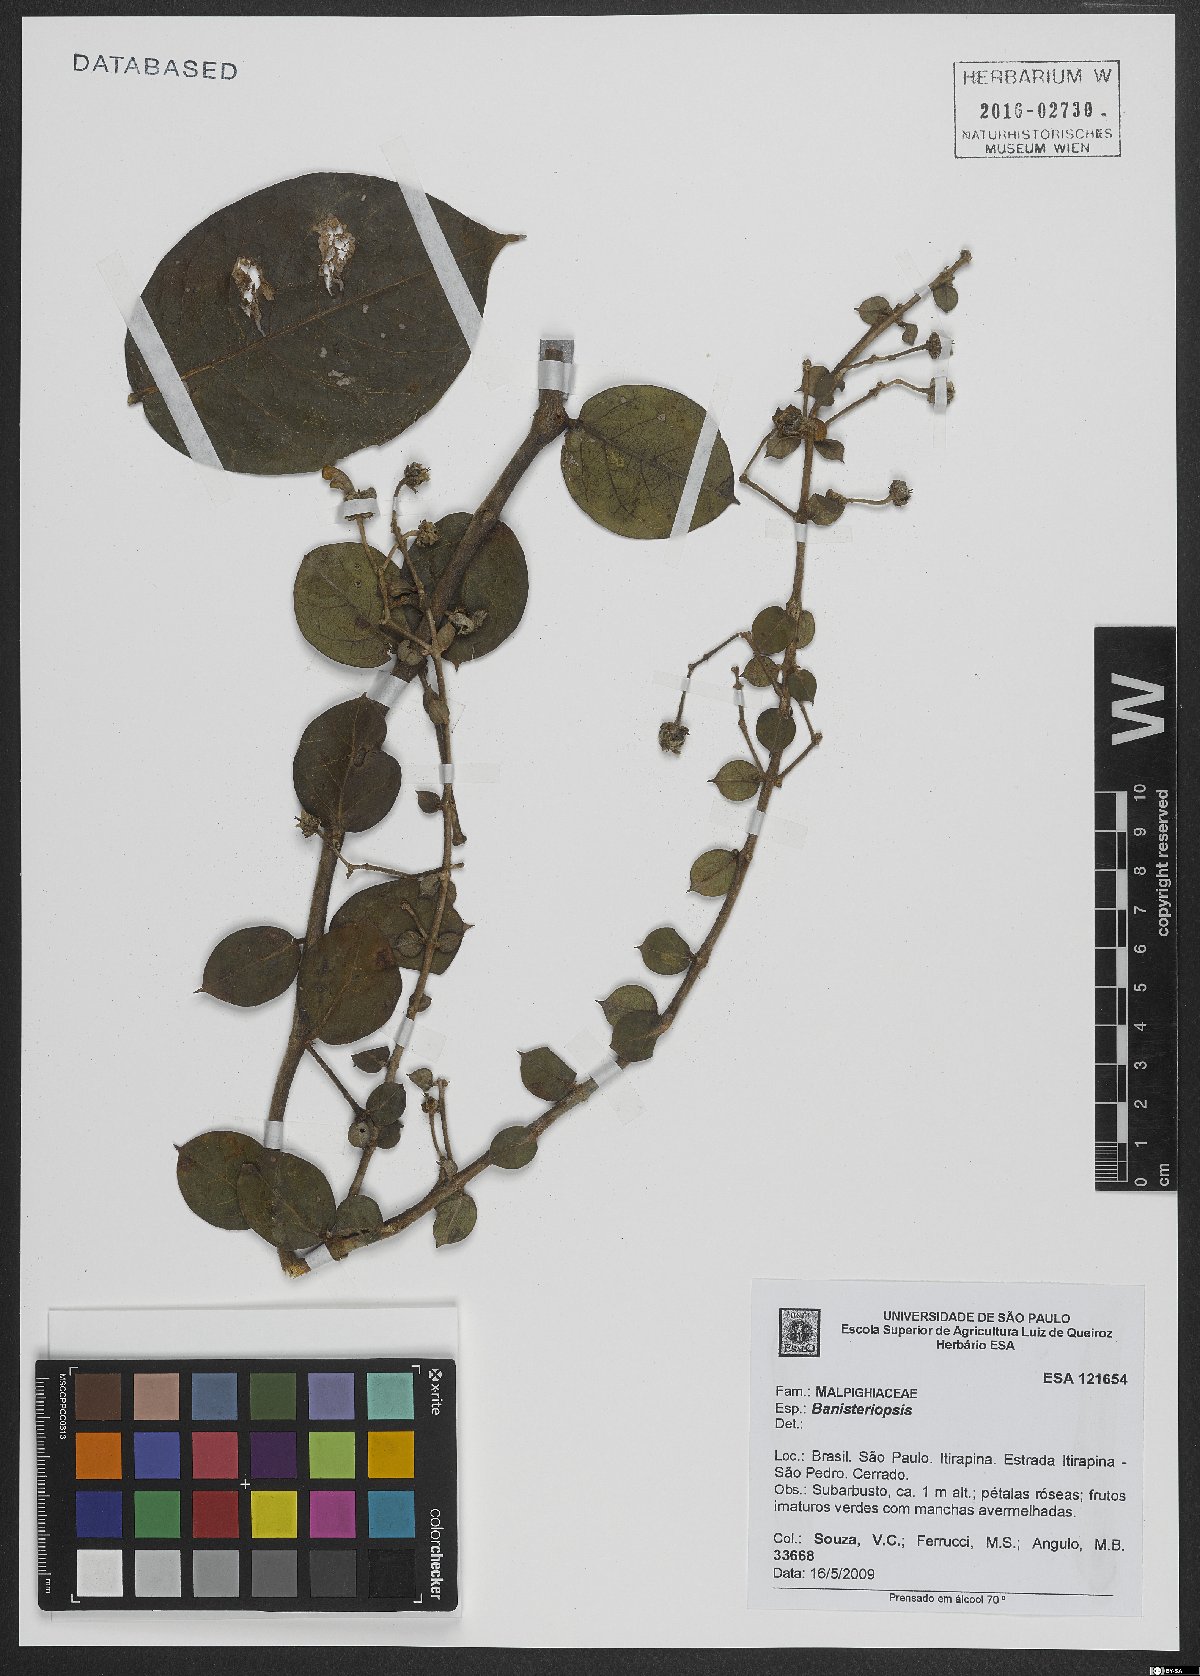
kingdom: Plantae
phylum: Tracheophyta
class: Magnoliopsida
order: Malpighiales
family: Malpighiaceae
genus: Banisteriopsis
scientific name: Banisteriopsis
